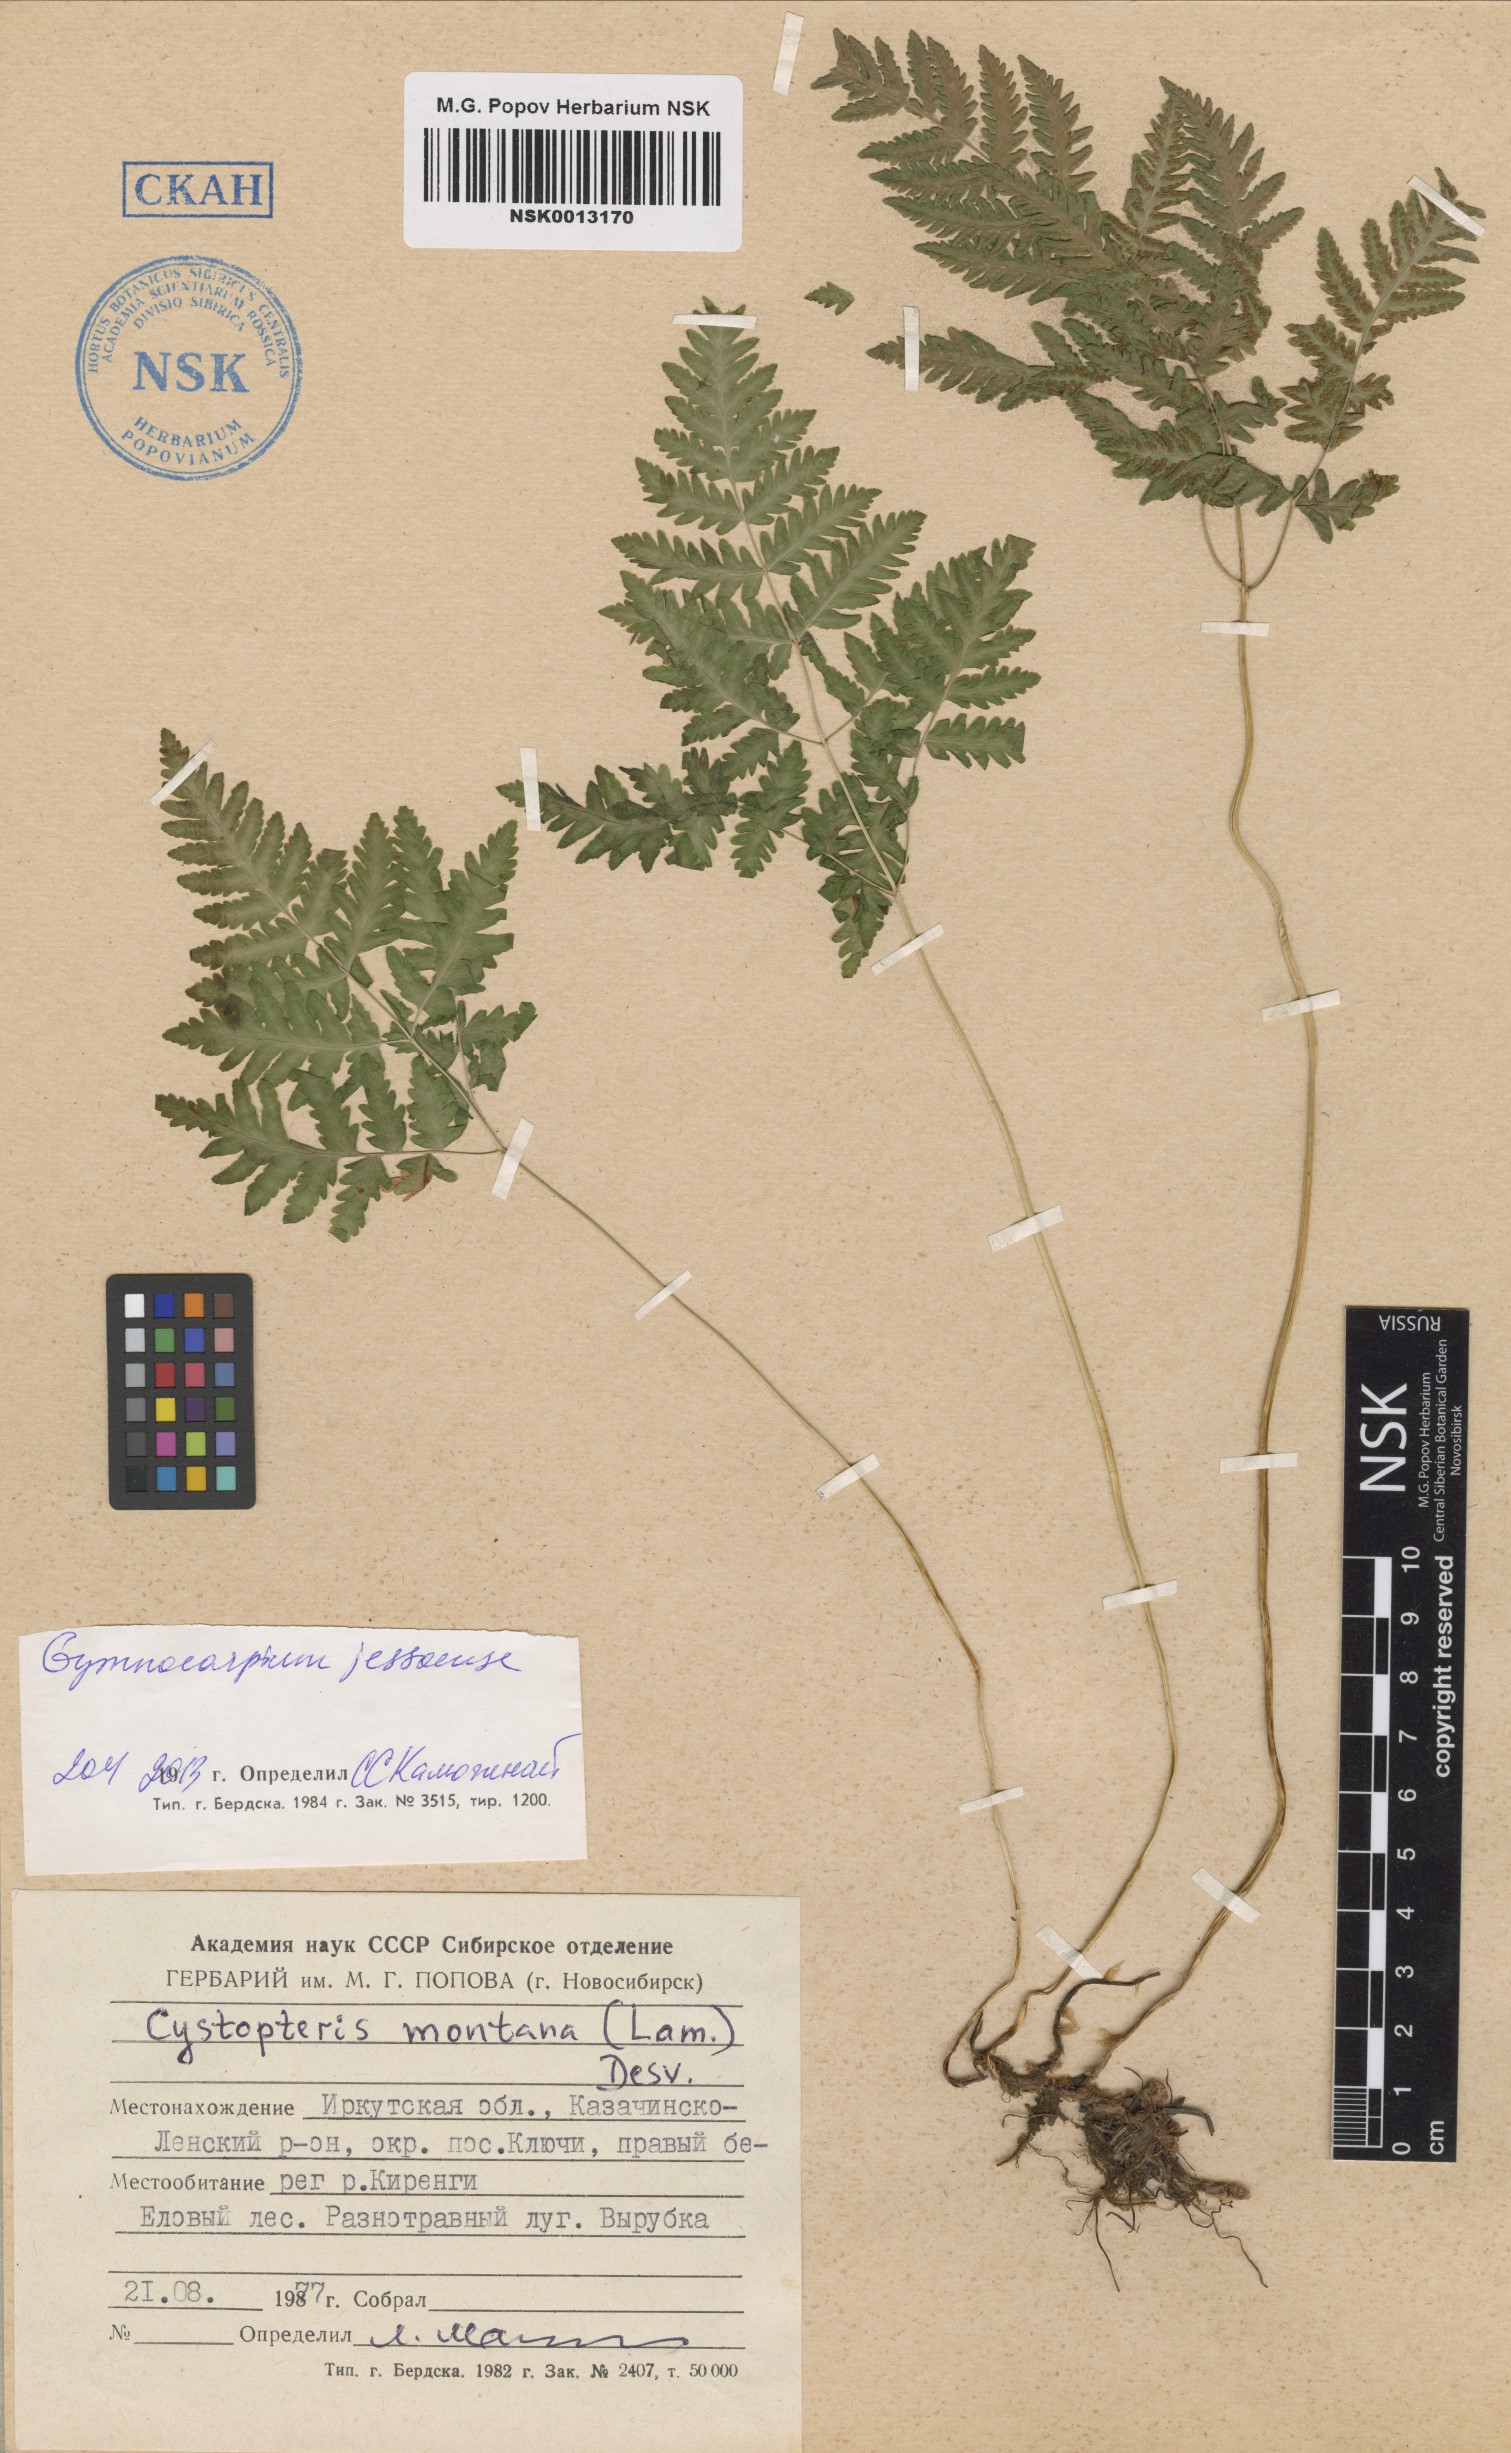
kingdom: Plantae
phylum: Tracheophyta
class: Polypodiopsida
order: Polypodiales
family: Cystopteridaceae
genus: Gymnocarpium
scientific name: Gymnocarpium jessoense
